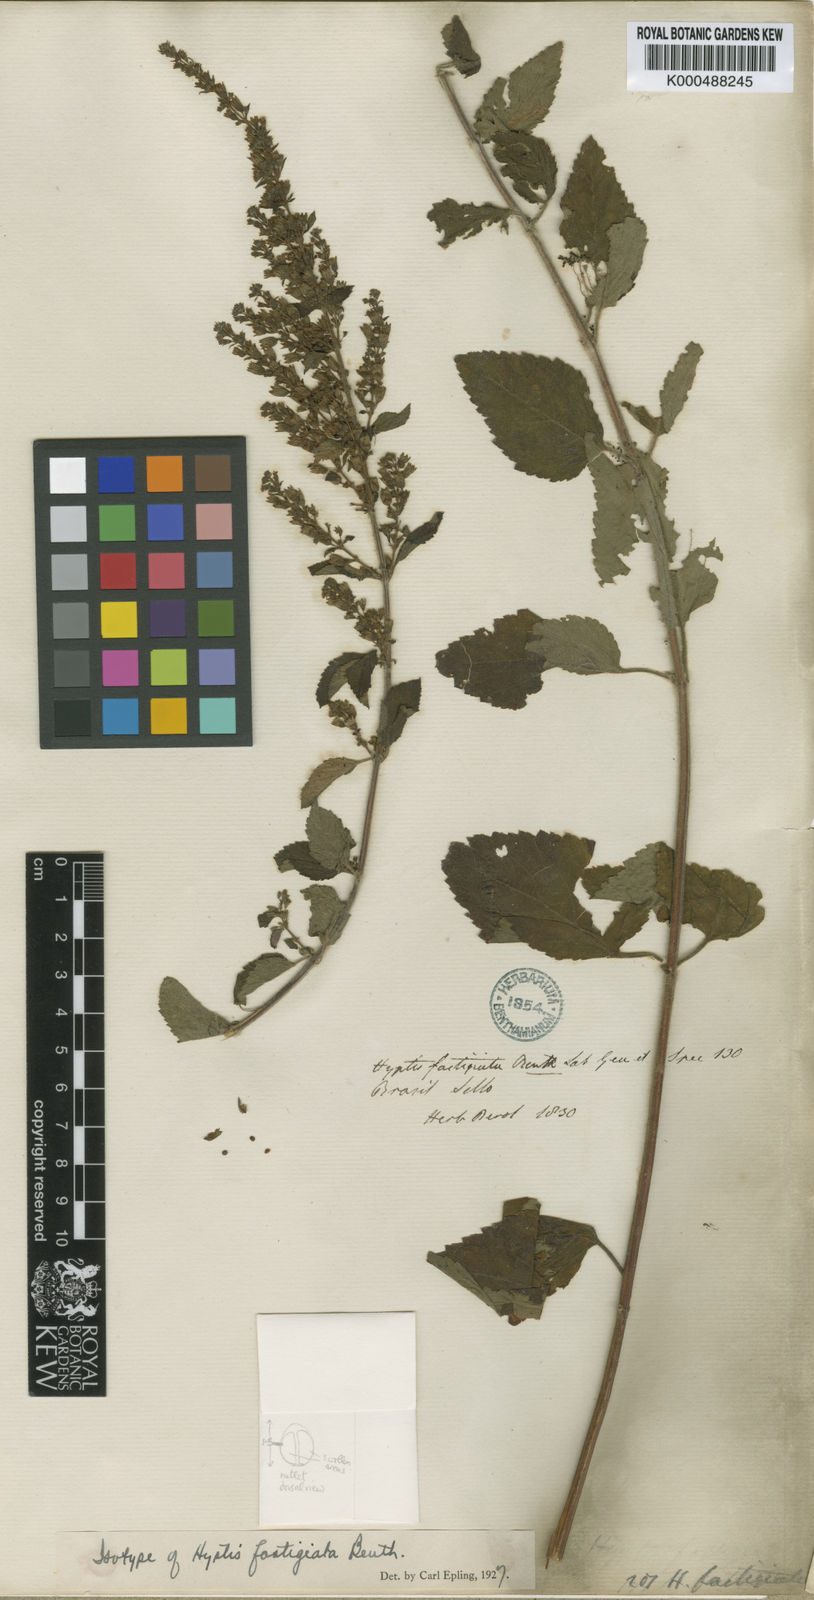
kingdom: Plantae
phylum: Tracheophyta
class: Magnoliopsida
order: Lamiales
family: Lamiaceae
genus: Condea
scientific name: Condea undulata
